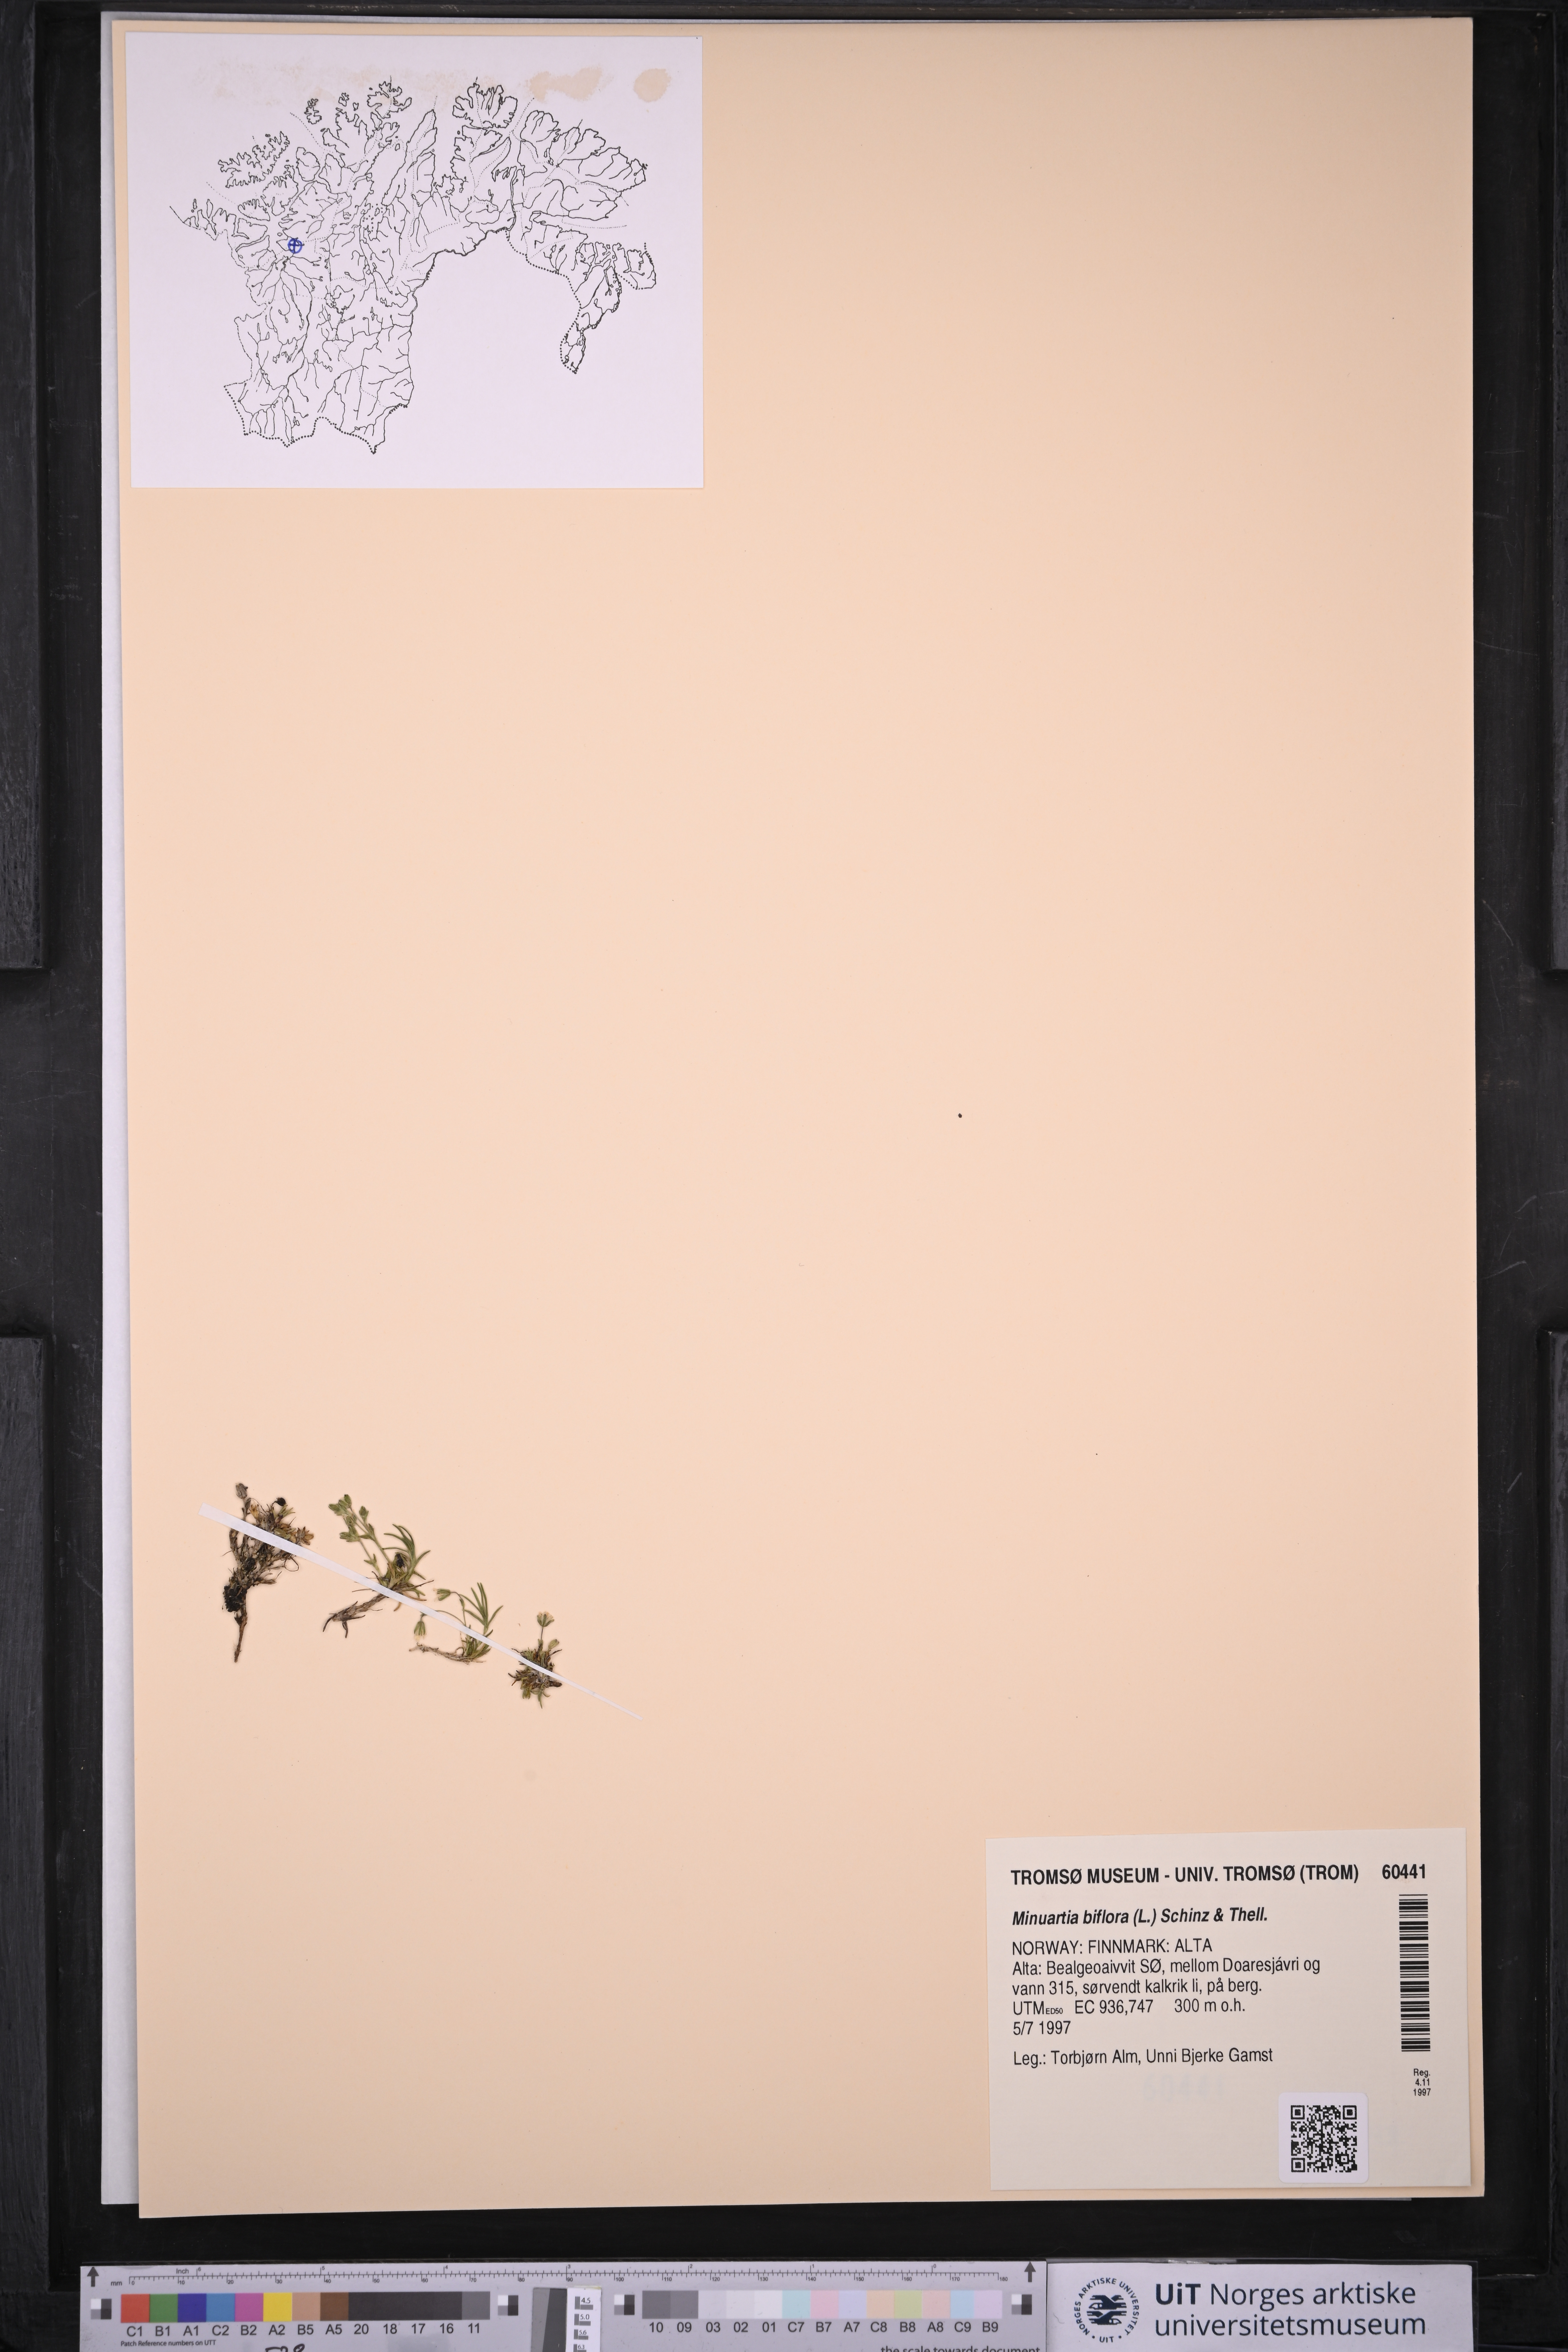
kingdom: Plantae
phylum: Tracheophyta
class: Magnoliopsida
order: Caryophyllales
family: Caryophyllaceae
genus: Cherleria
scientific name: Cherleria biflora
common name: Mountain sandwort
